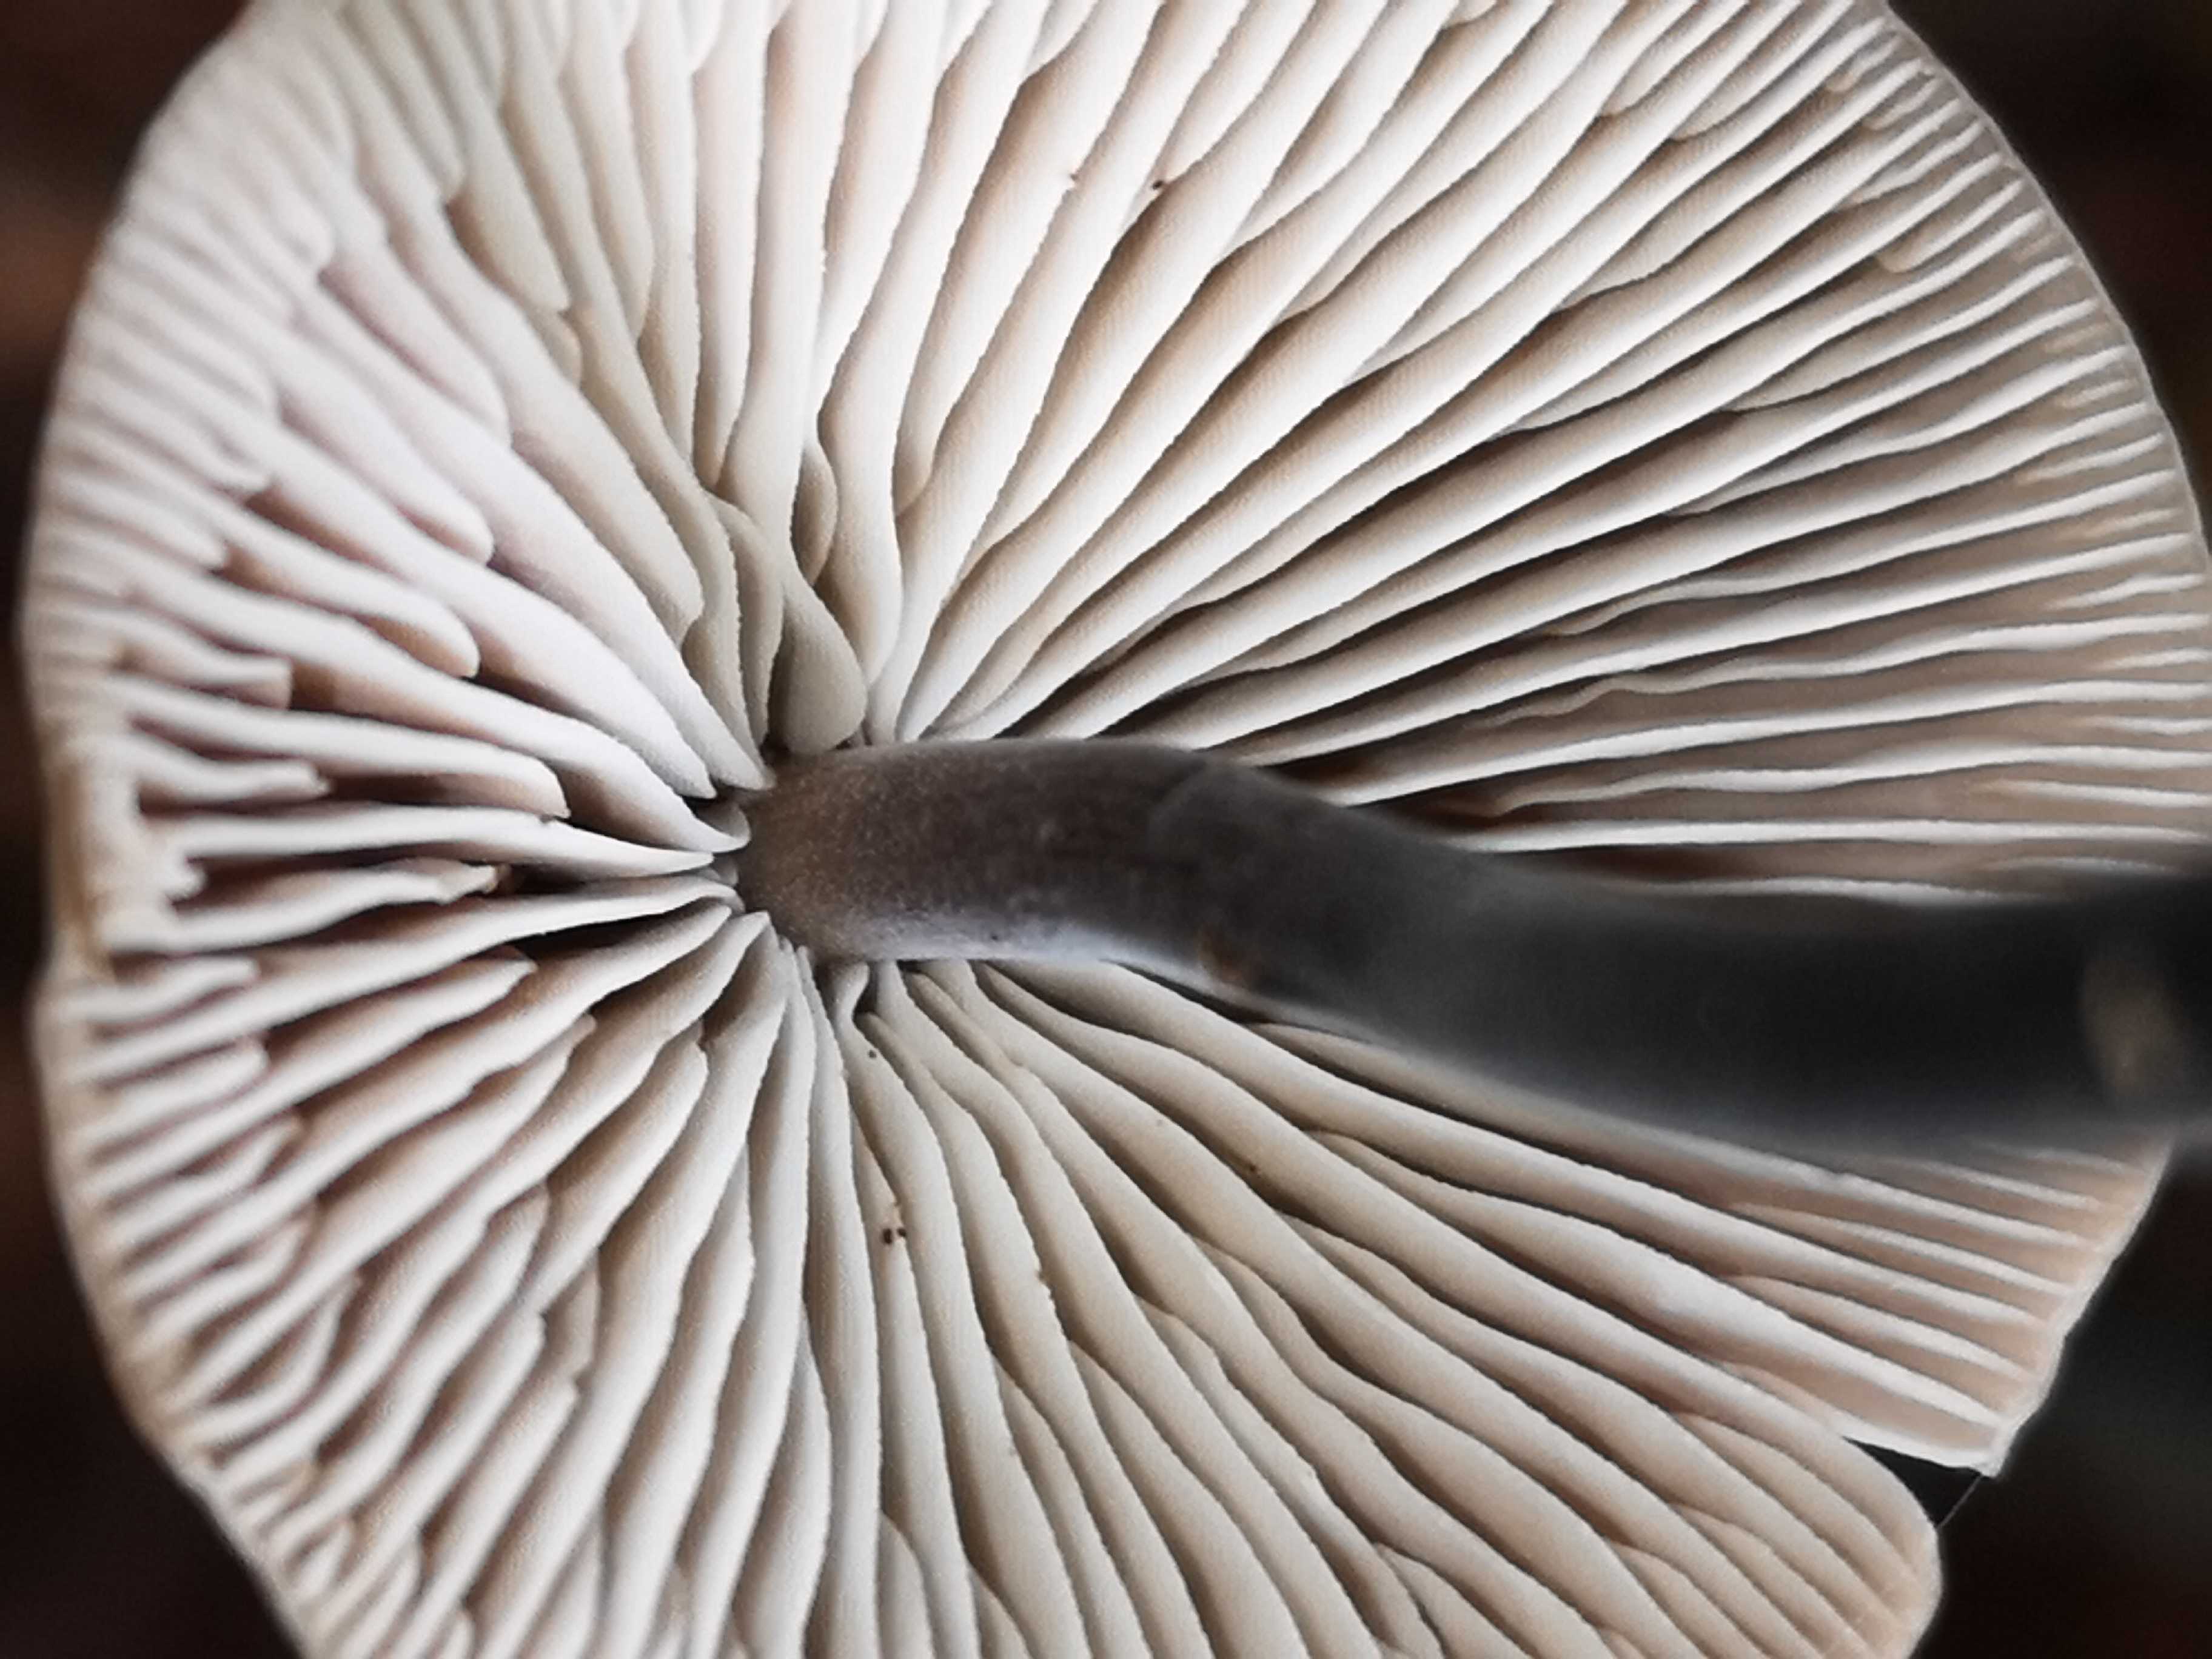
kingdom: Fungi
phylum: Basidiomycota
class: Agaricomycetes
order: Agaricales
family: Omphalotaceae
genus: Mycetinis
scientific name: Mycetinis alliaceus
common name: stor løghat
